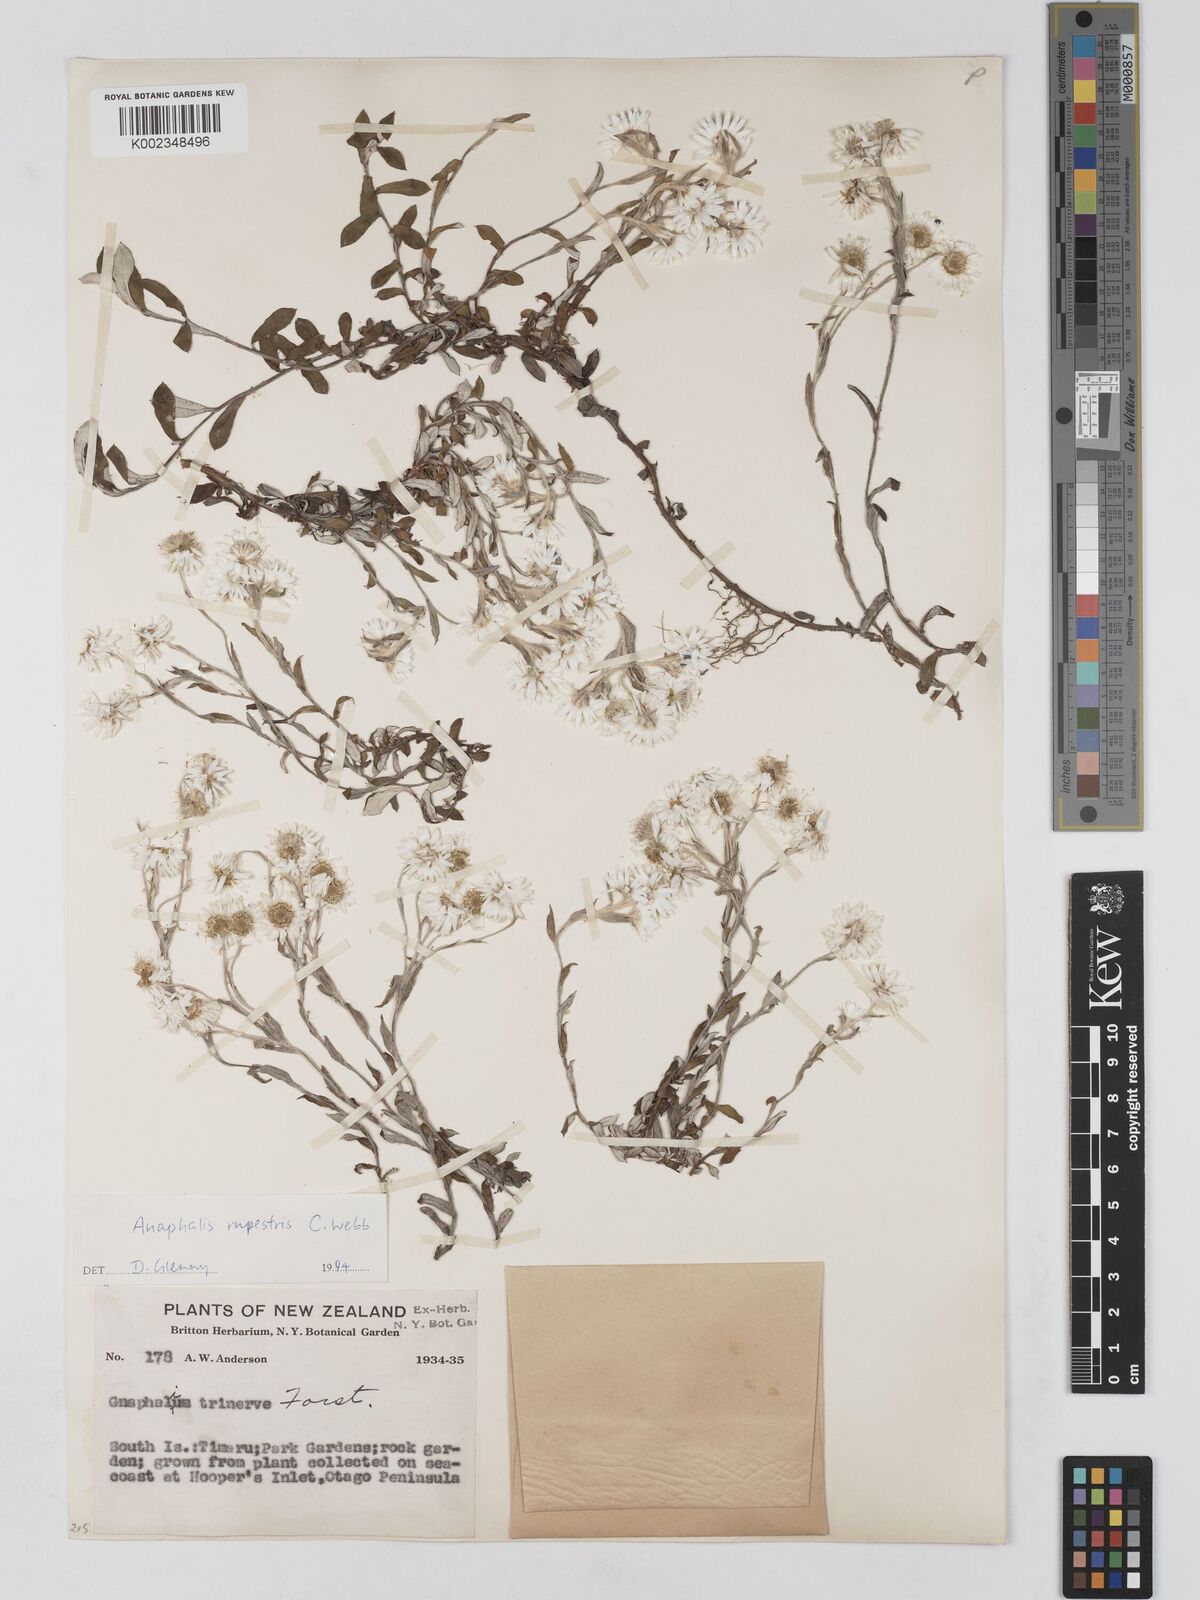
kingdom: Plantae
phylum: Tracheophyta
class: Magnoliopsida
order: Asterales
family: Asteraceae
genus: Anaphaloides
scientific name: Anaphaloides
